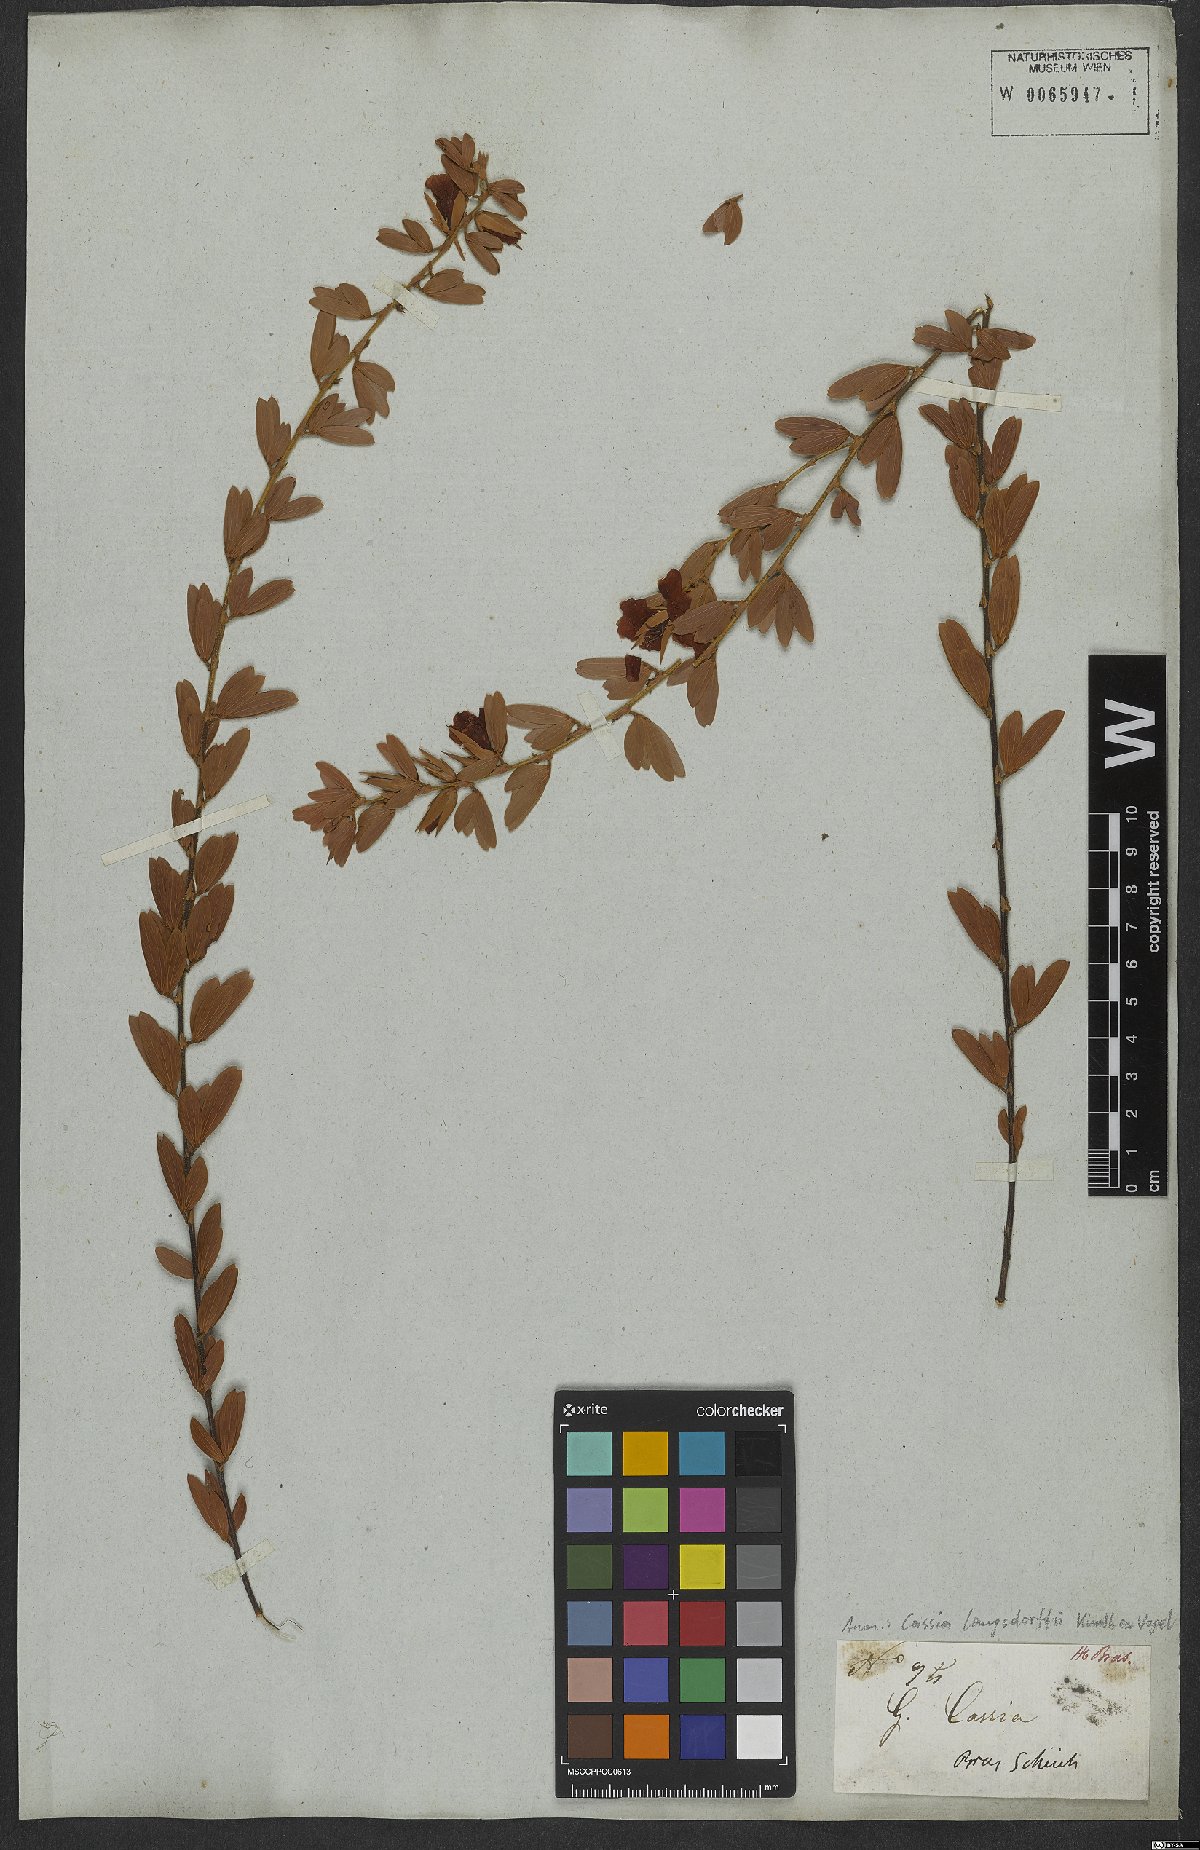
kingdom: Plantae
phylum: Tracheophyta
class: Magnoliopsida
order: Fabales
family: Fabaceae
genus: Chamaecrista
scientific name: Chamaecrista langsdorffii
